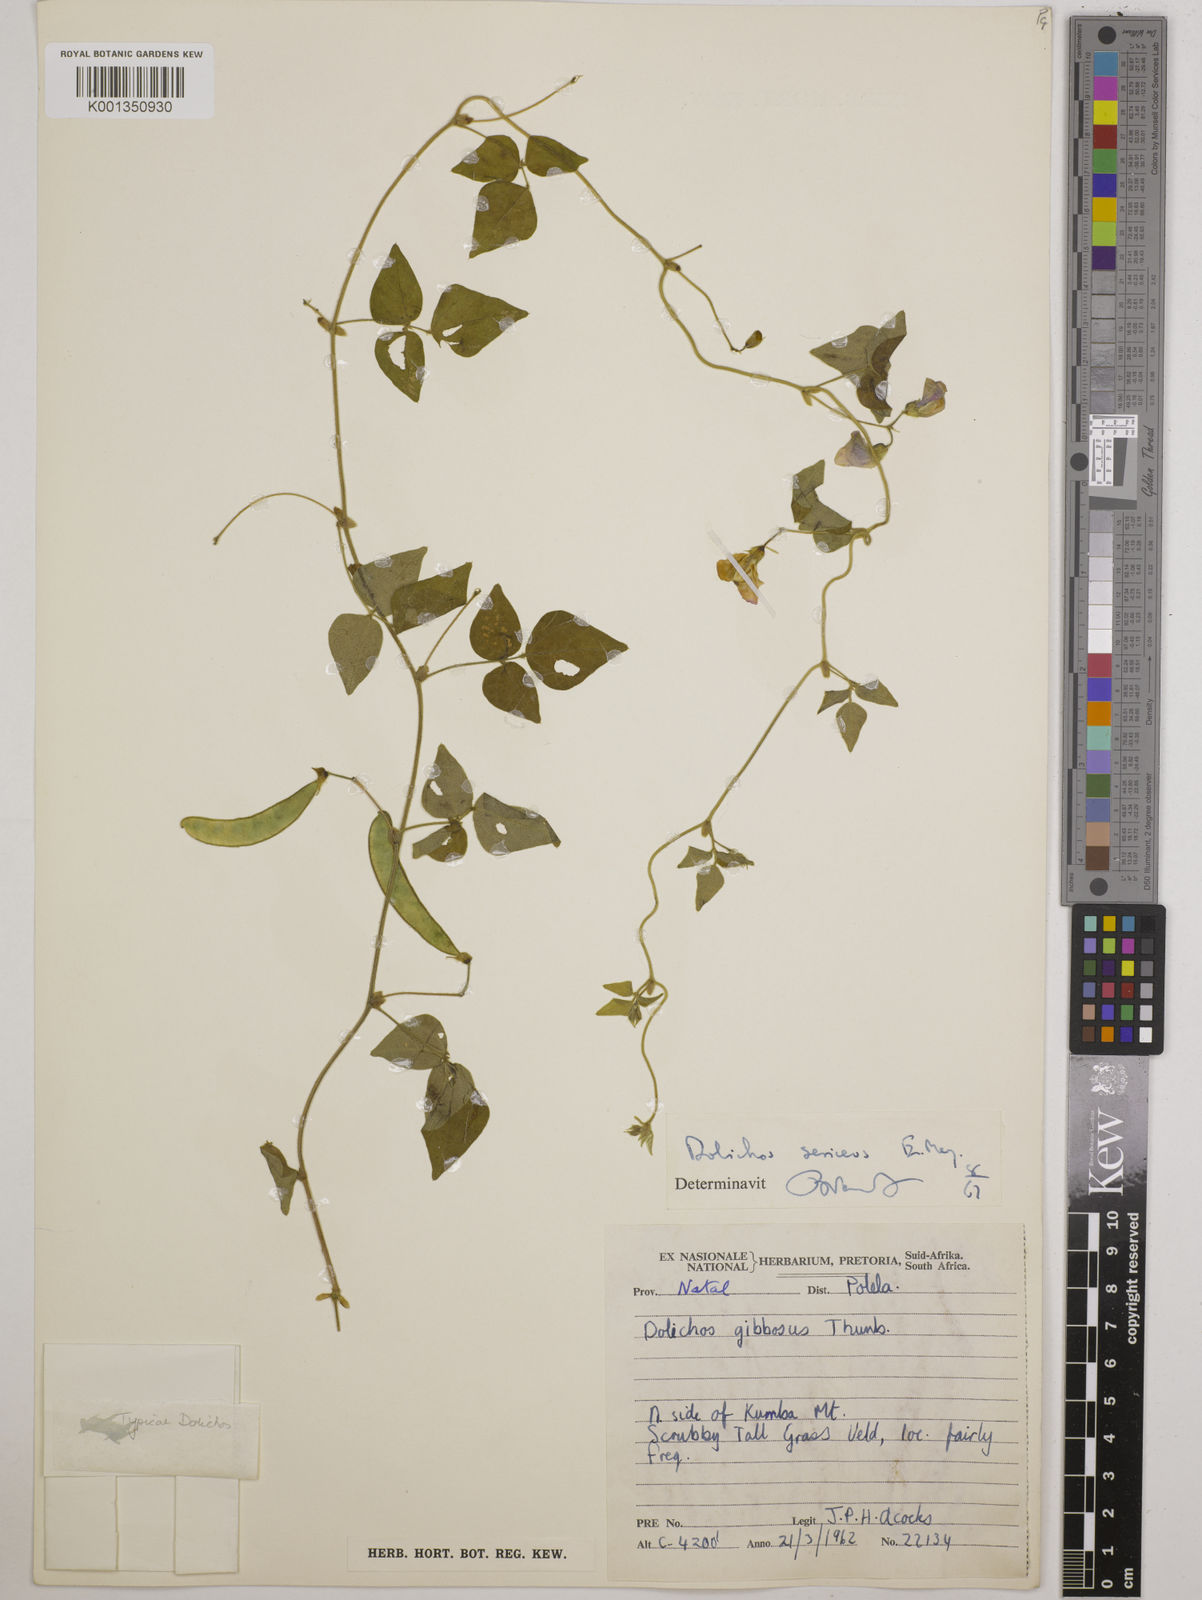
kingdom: Plantae
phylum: Tracheophyta
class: Magnoliopsida
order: Fabales
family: Fabaceae
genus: Dolichos
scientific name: Dolichos sericeus
